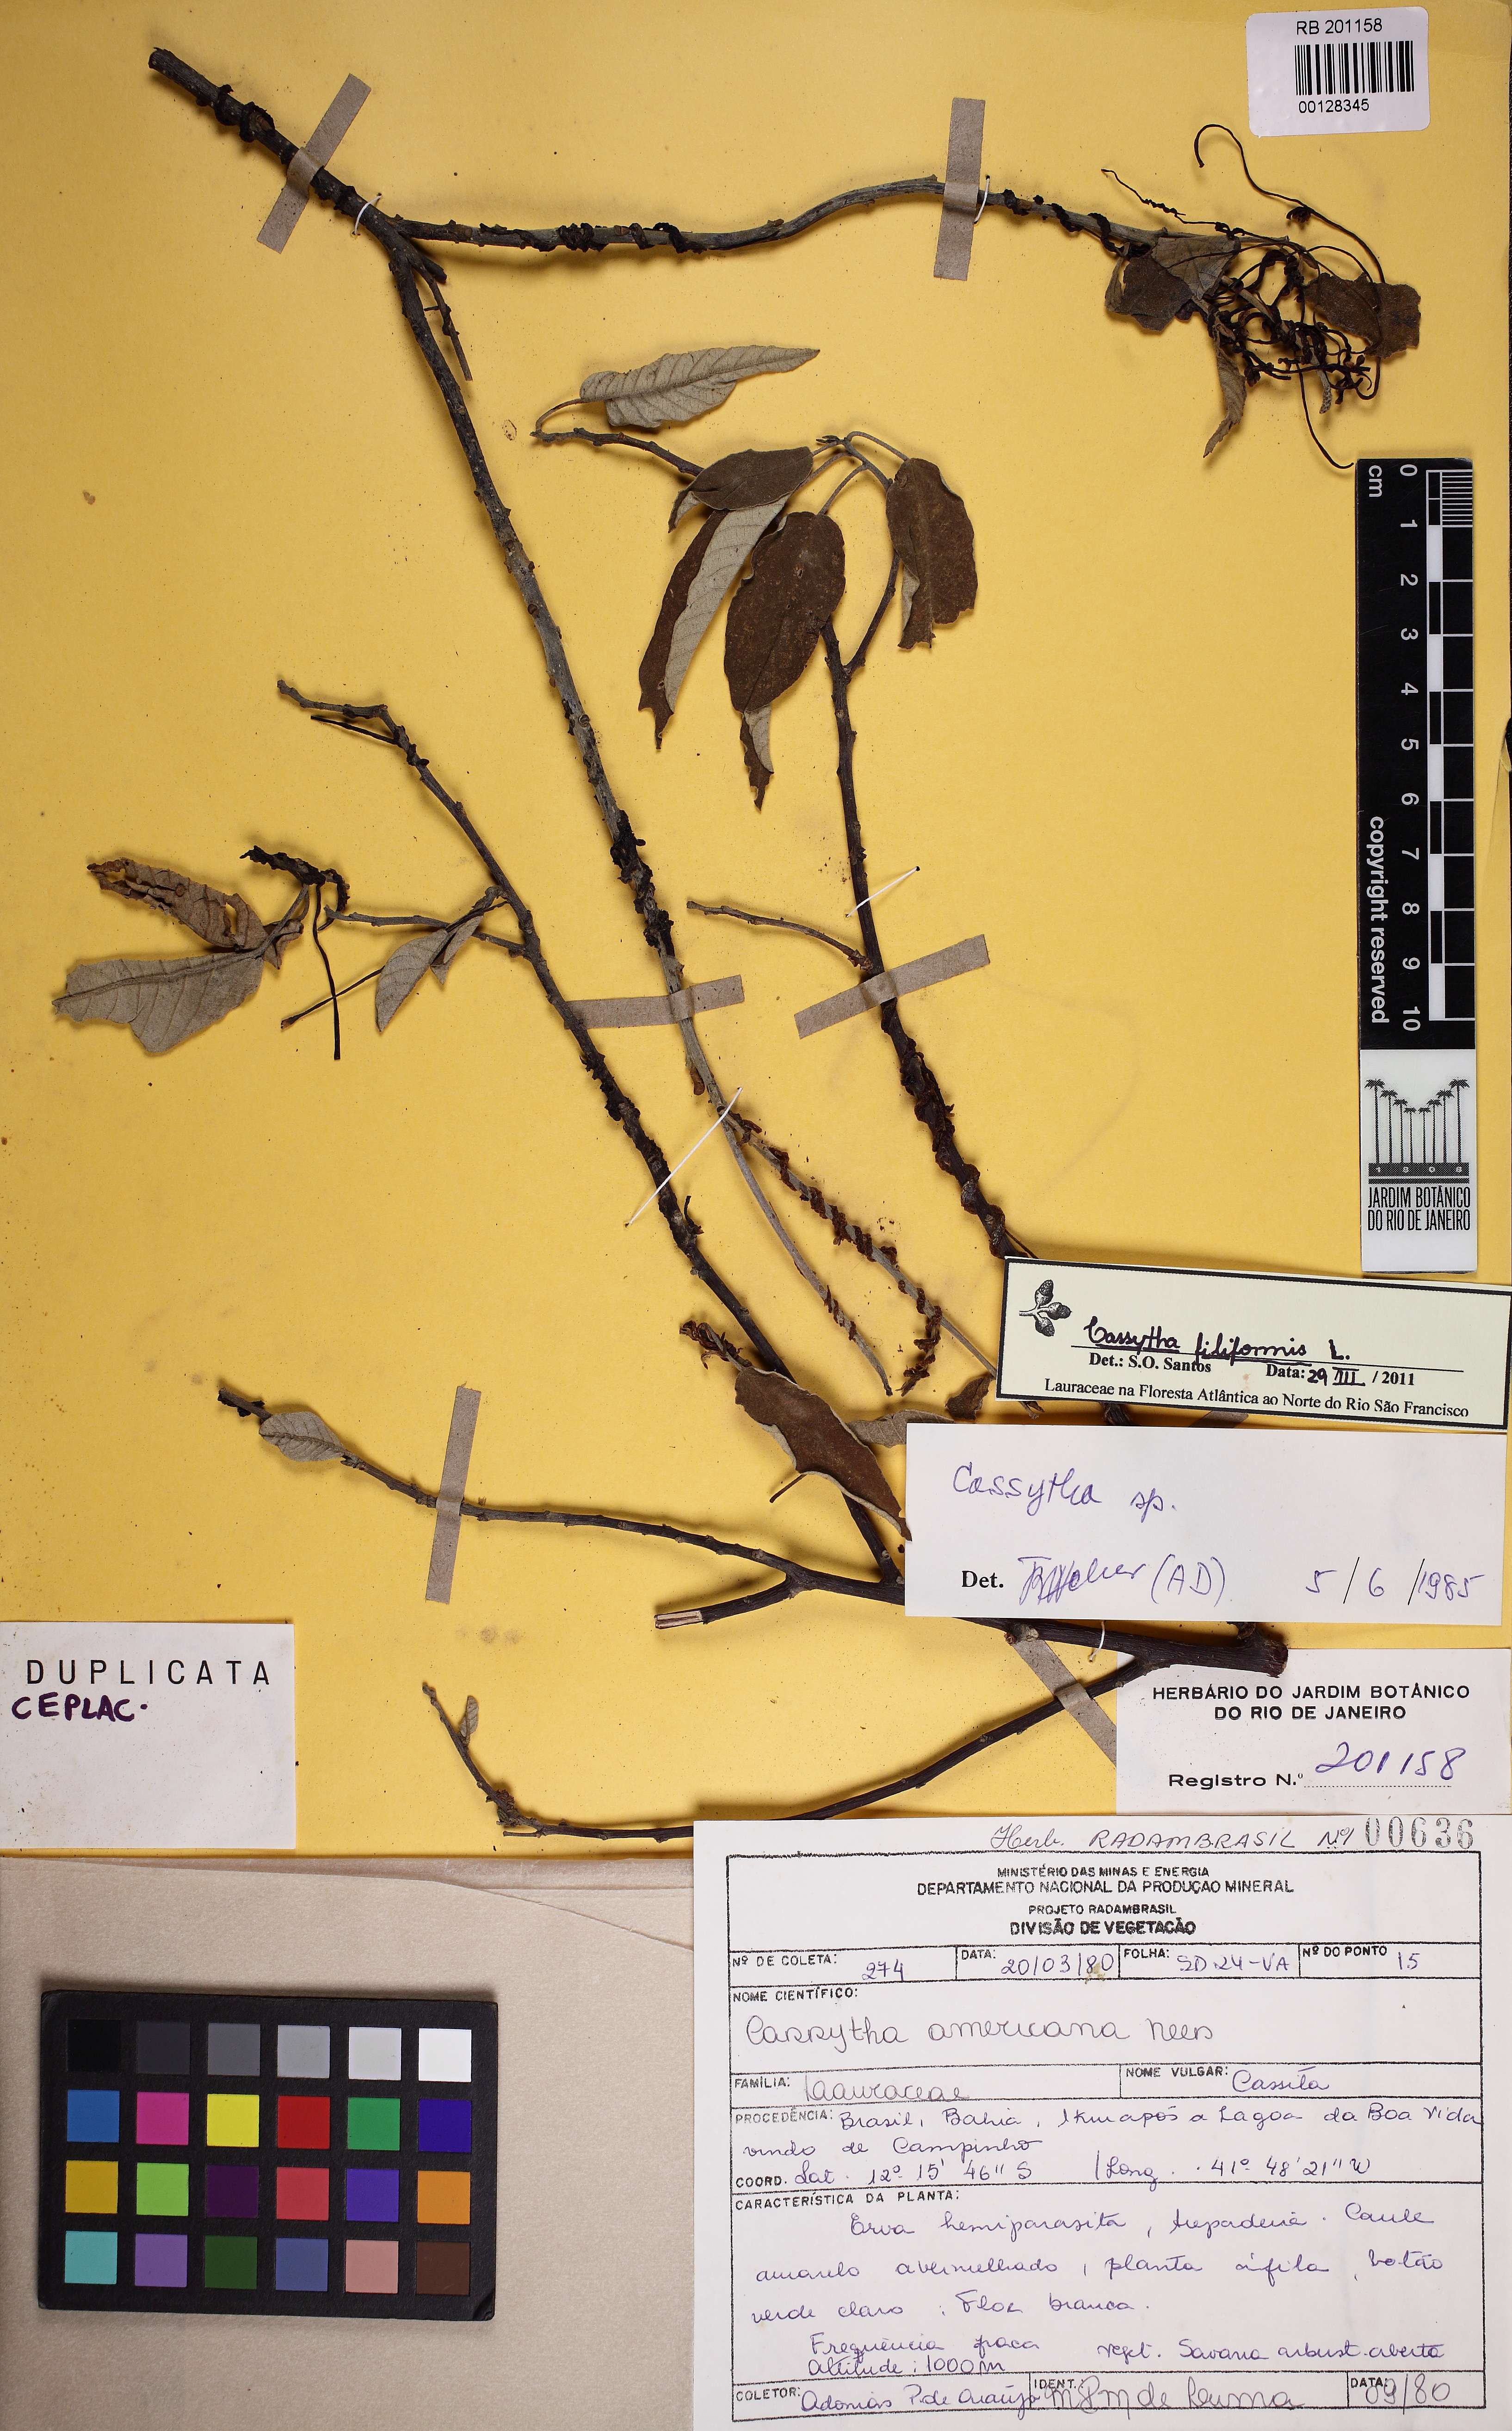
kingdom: Plantae
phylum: Tracheophyta
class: Magnoliopsida
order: Laurales
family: Lauraceae
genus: Cassytha
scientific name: Cassytha filiformis
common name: Dodder-laurel
